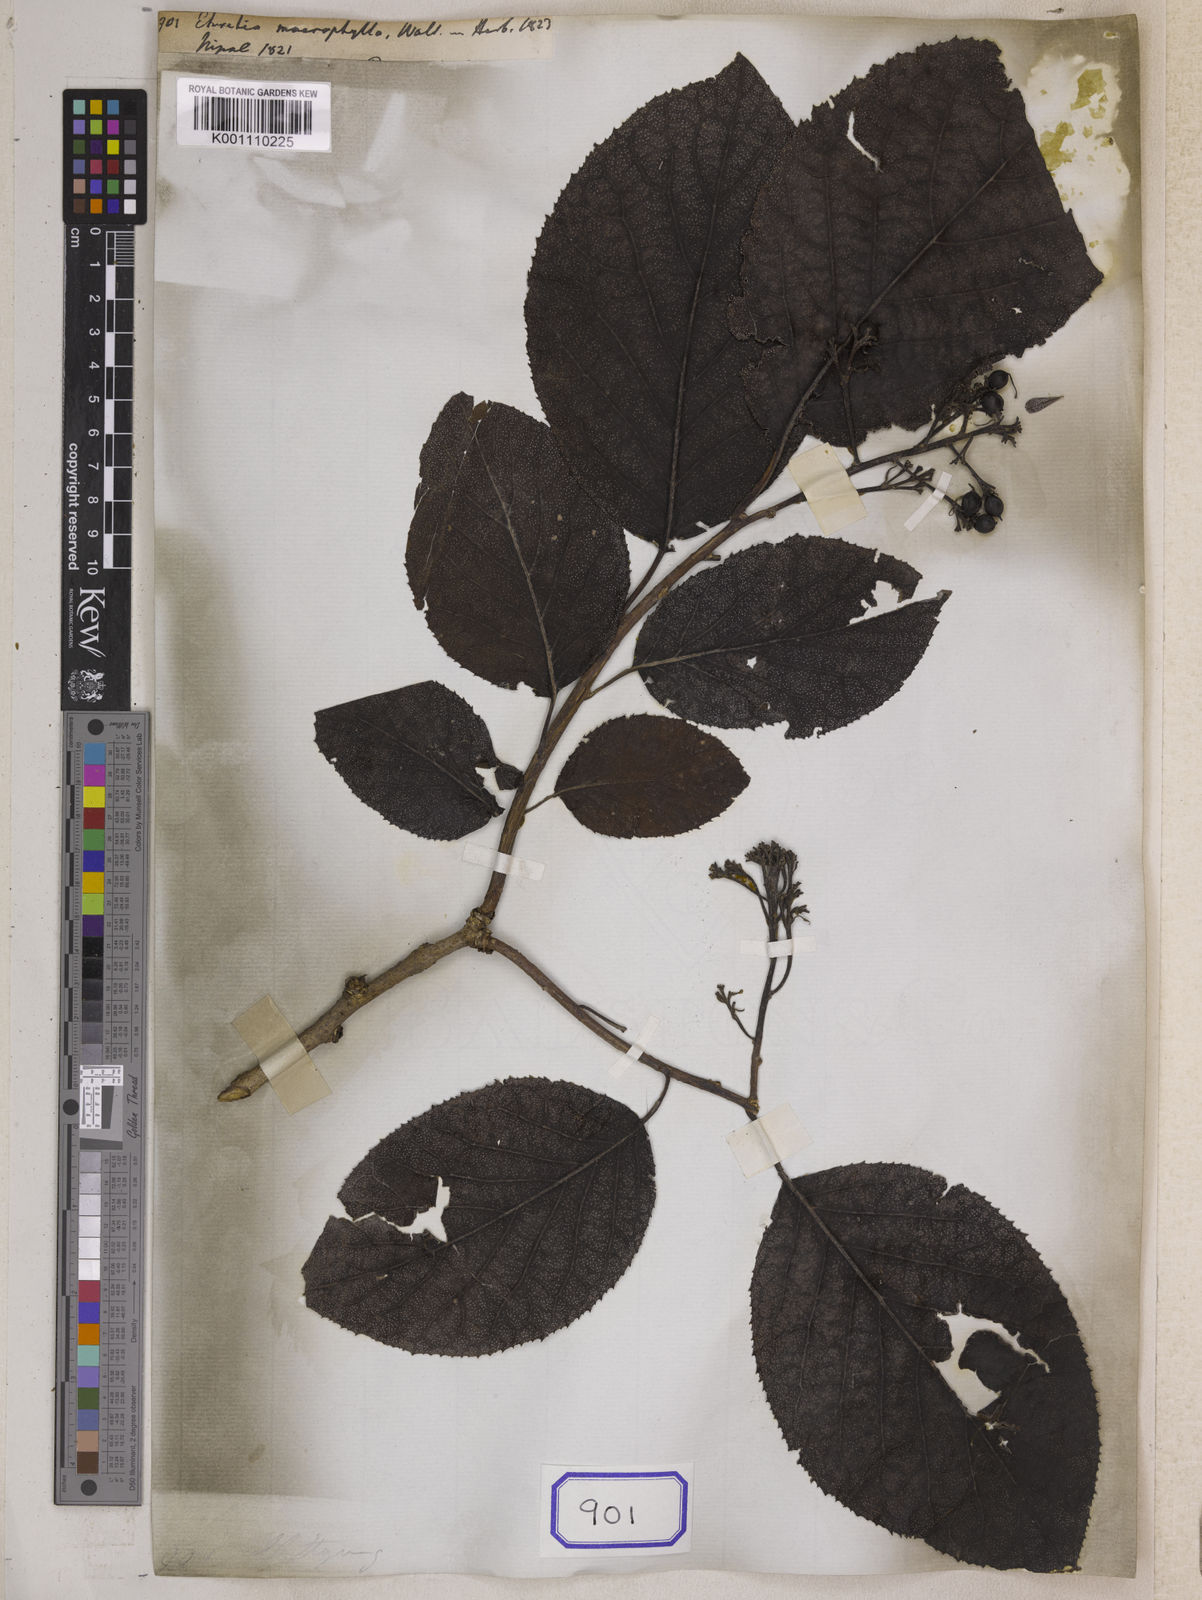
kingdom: Plantae
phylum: Tracheophyta
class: Magnoliopsida
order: Boraginales
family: Ehretiaceae
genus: Ehretia
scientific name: Ehretia macrophylla
